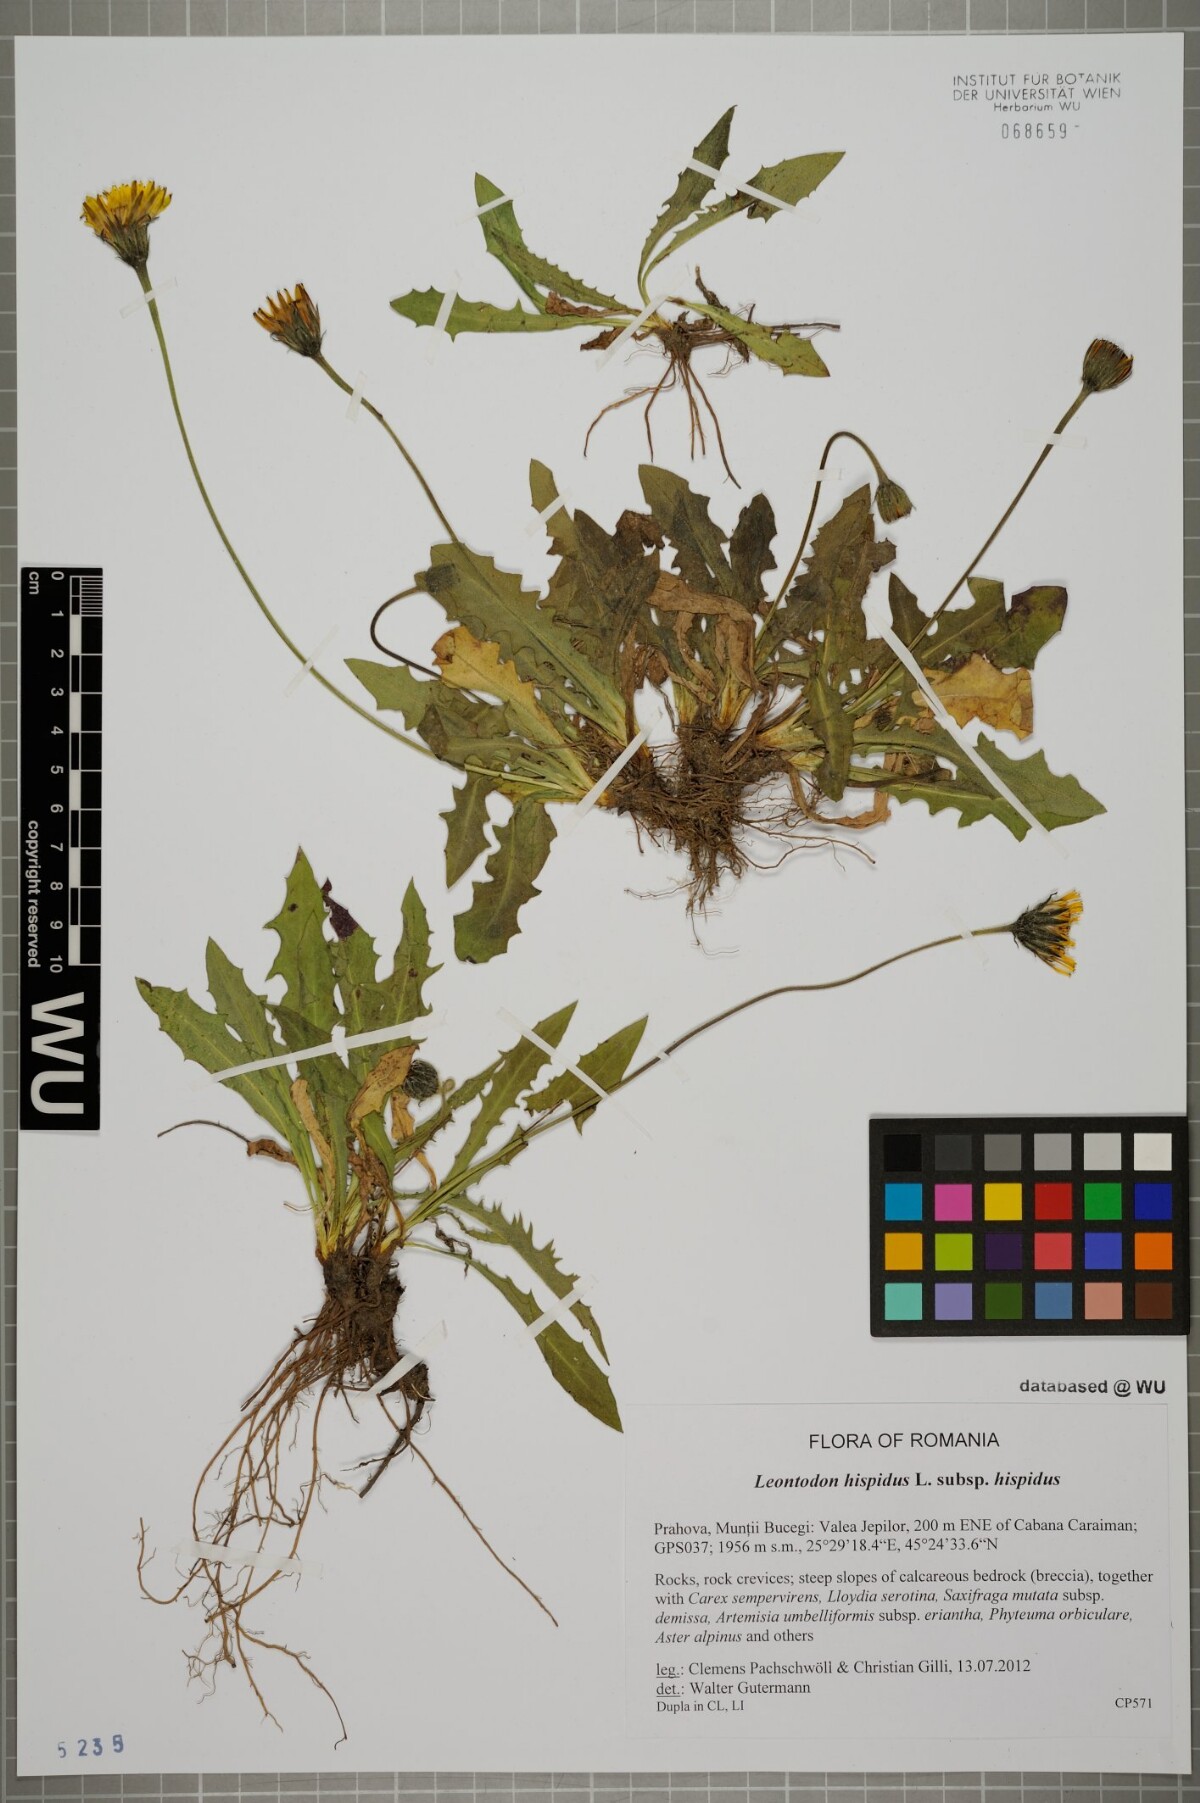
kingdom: Plantae
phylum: Tracheophyta
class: Magnoliopsida
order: Asterales
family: Asteraceae
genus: Leontodon
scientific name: Leontodon hispidus
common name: Rough hawkbit
